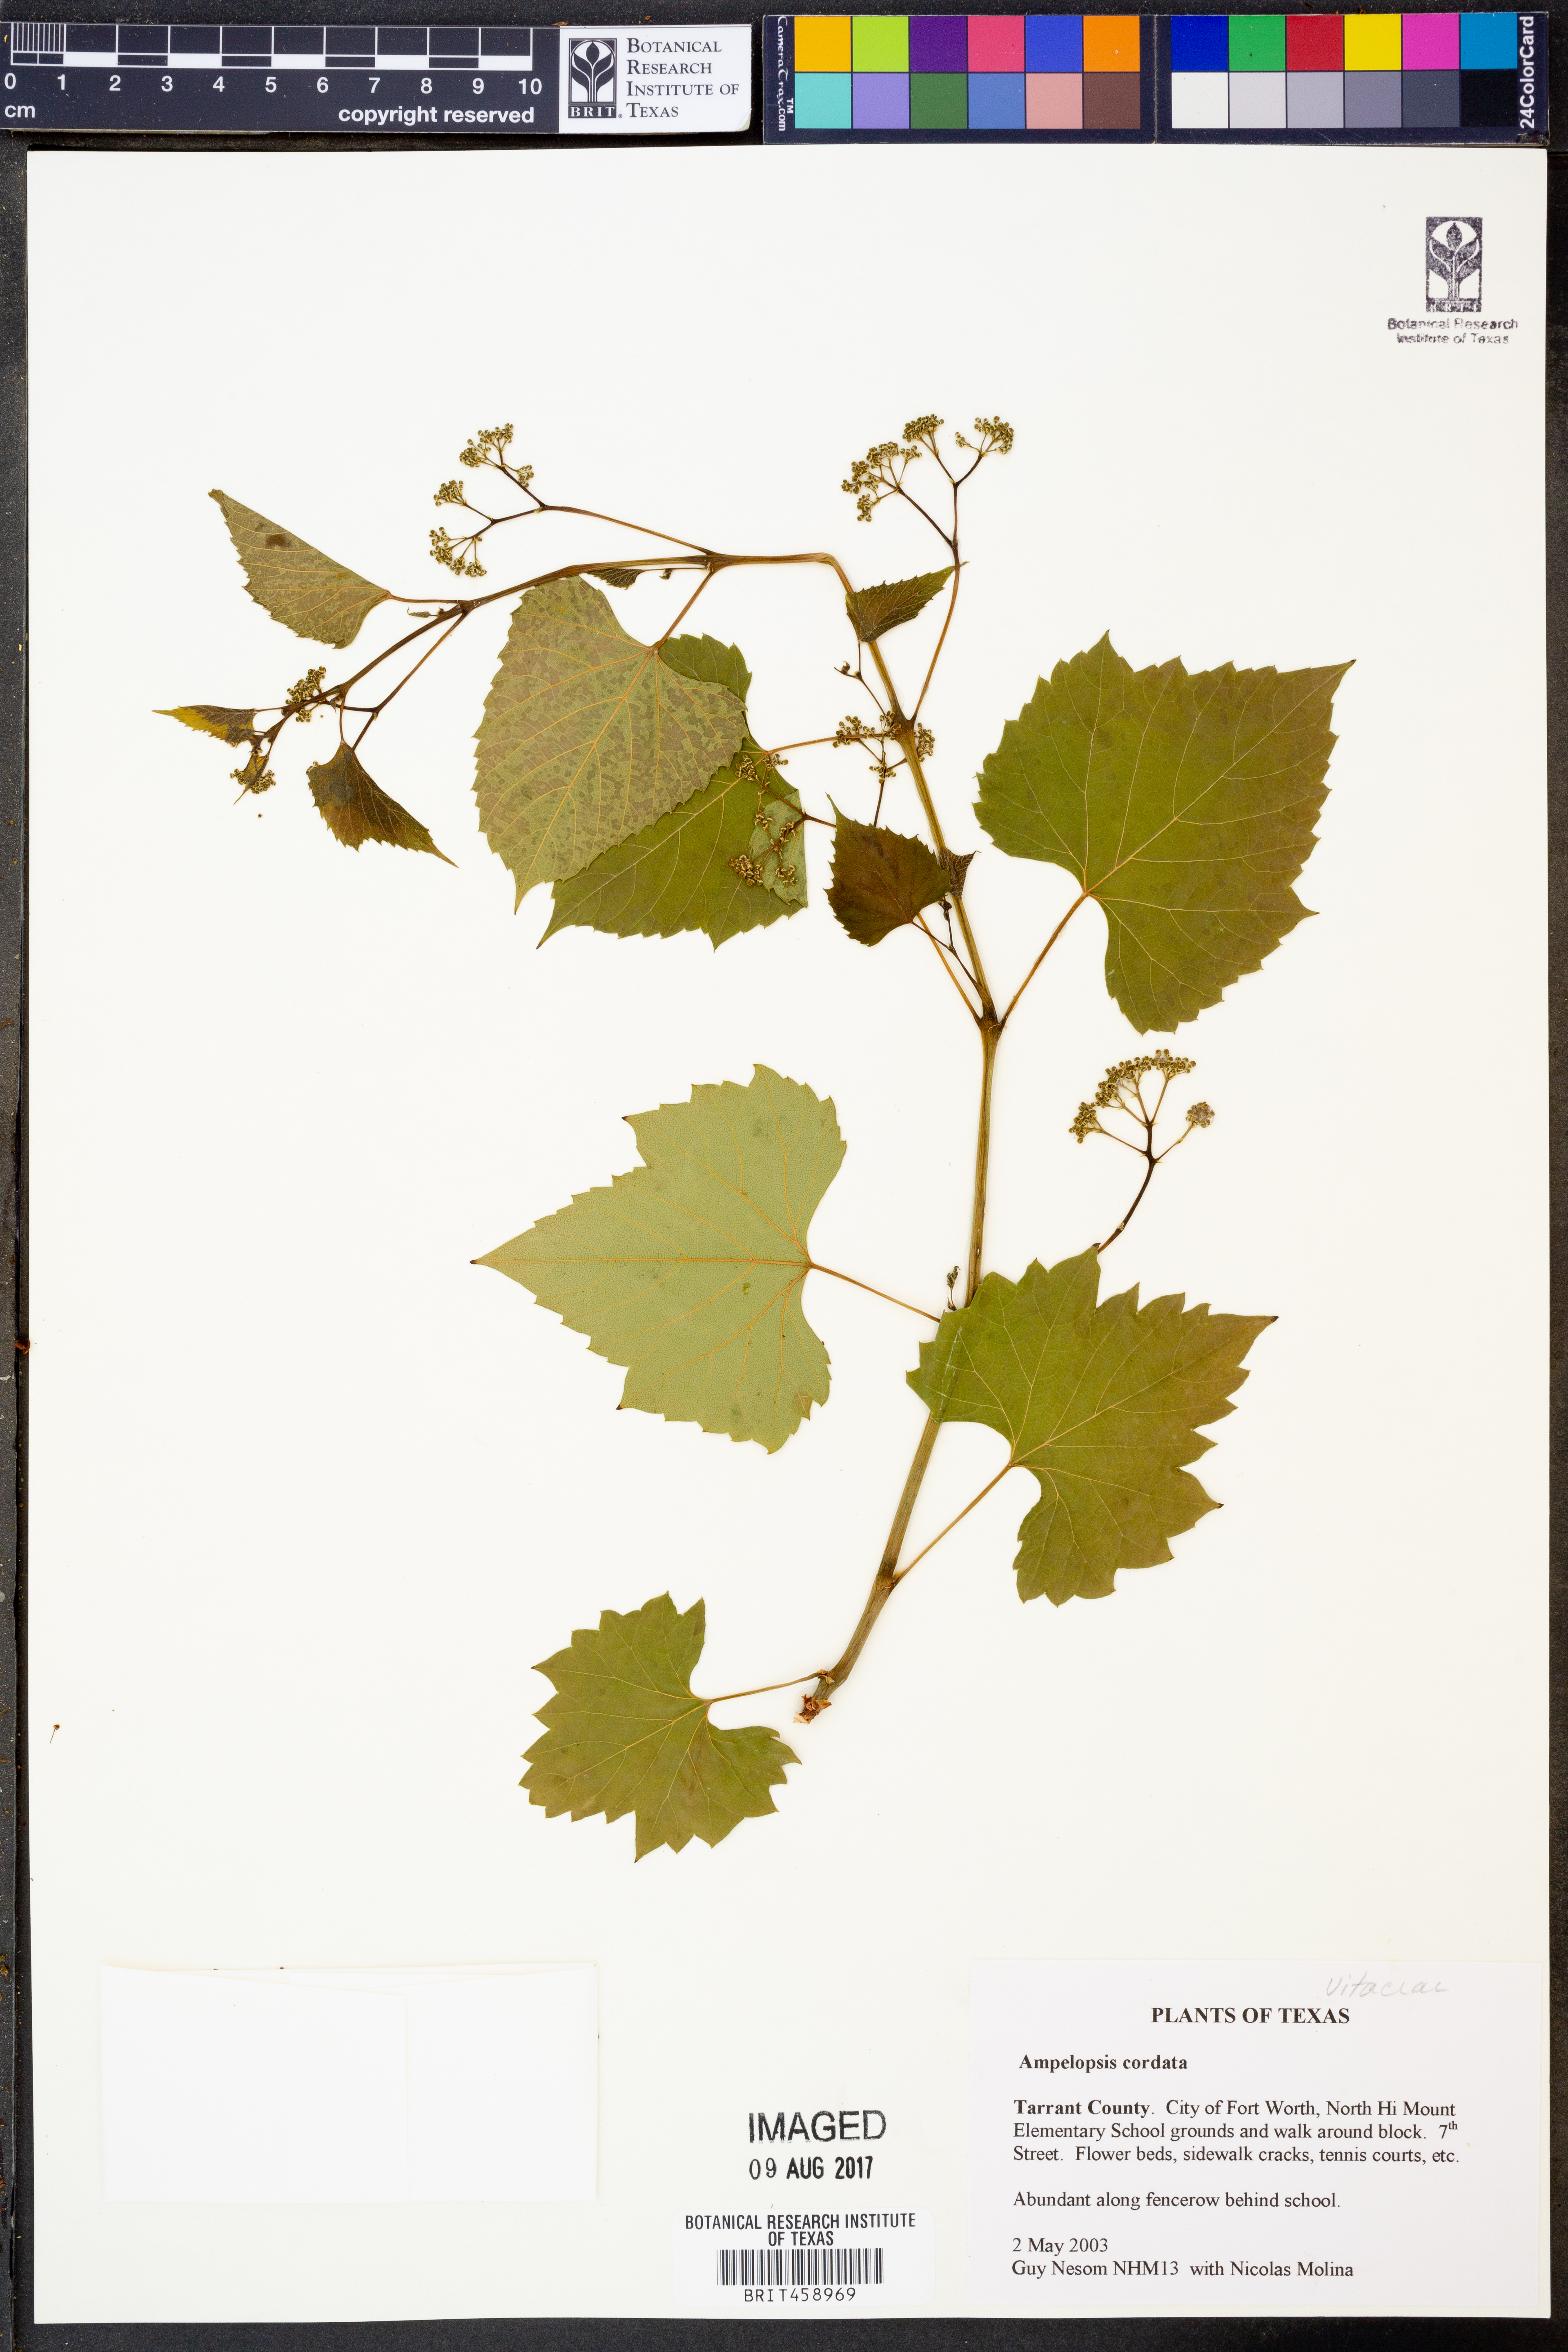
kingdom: Plantae
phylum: Tracheophyta
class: Magnoliopsida
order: Vitales
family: Vitaceae
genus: Ampelopsis
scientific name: Ampelopsis cordata
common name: Heart-leaf ampelopsis
